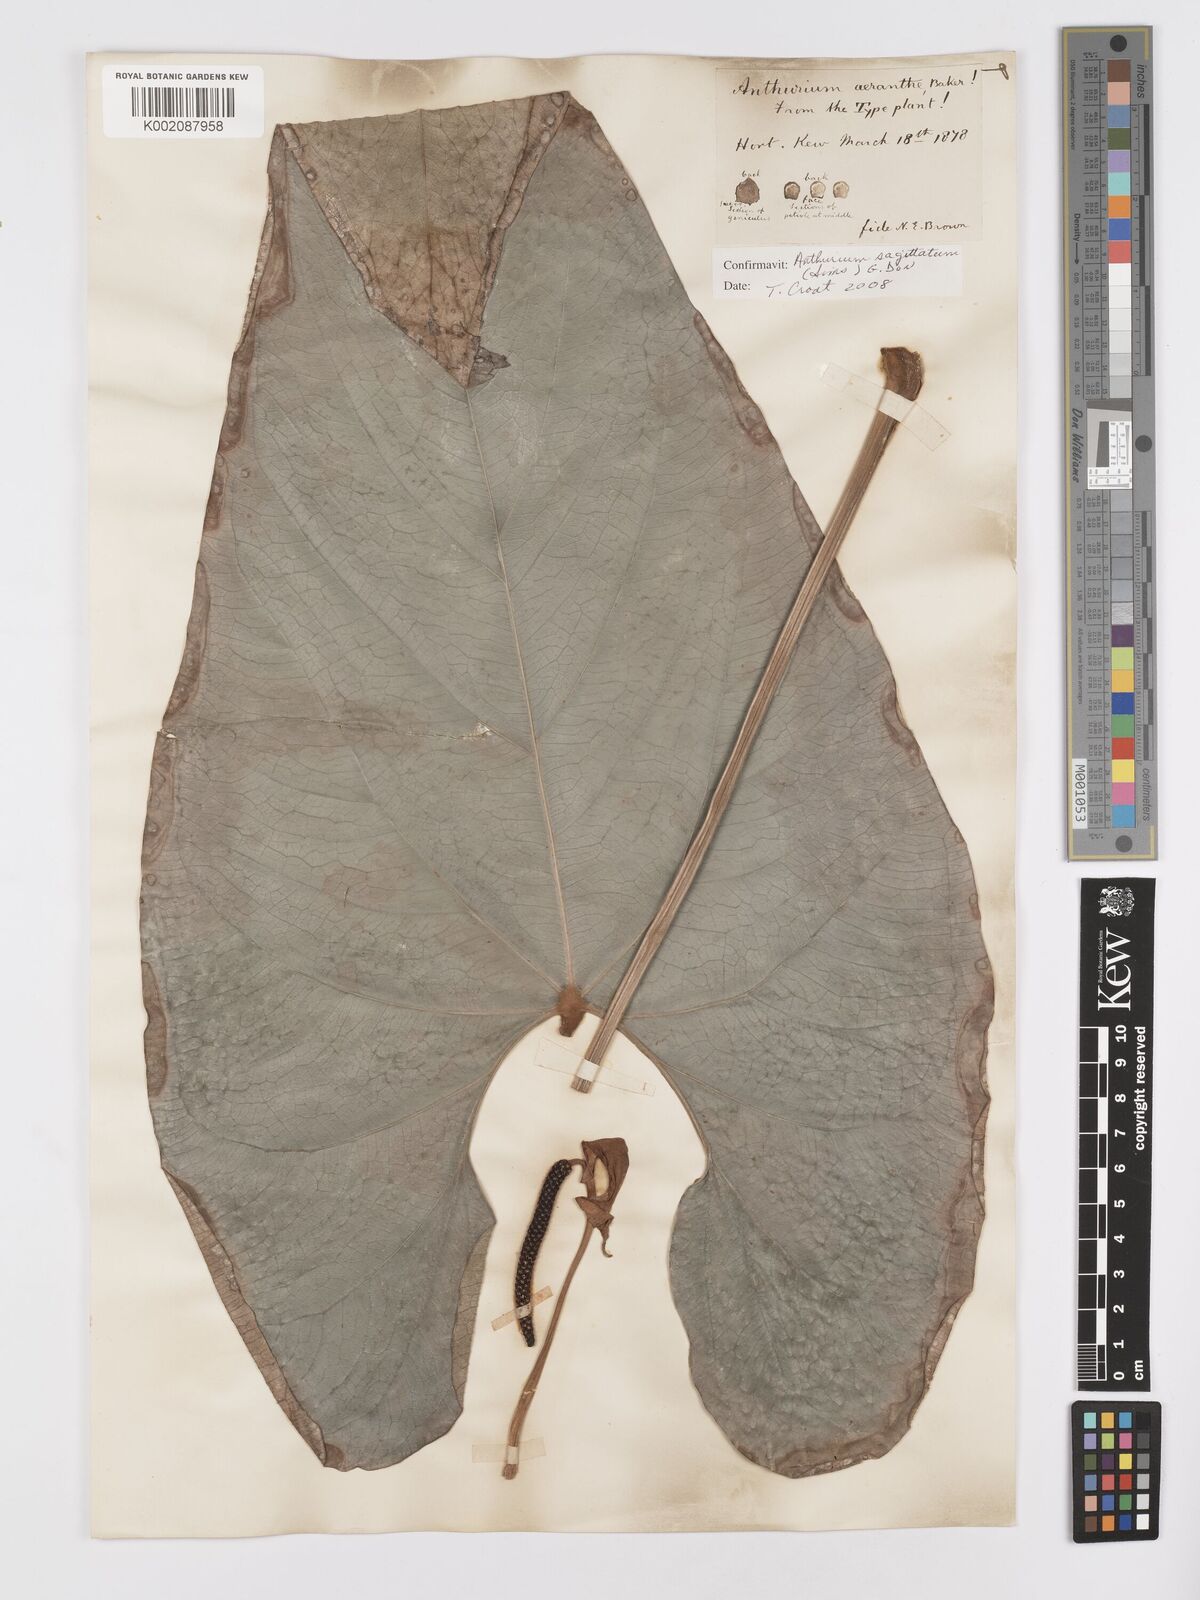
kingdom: Plantae
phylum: Tracheophyta
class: Liliopsida
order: Alismatales
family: Araceae
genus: Anthurium
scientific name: Anthurium sagittatum
